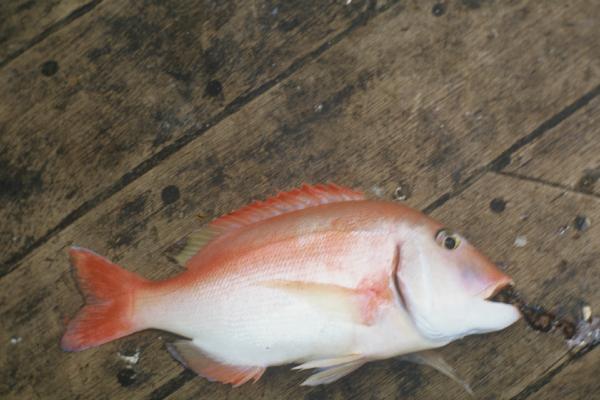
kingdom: Animalia
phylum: Chordata
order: Perciformes
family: Sparidae
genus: Porcostoma
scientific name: Porcostoma dentata
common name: Dane
